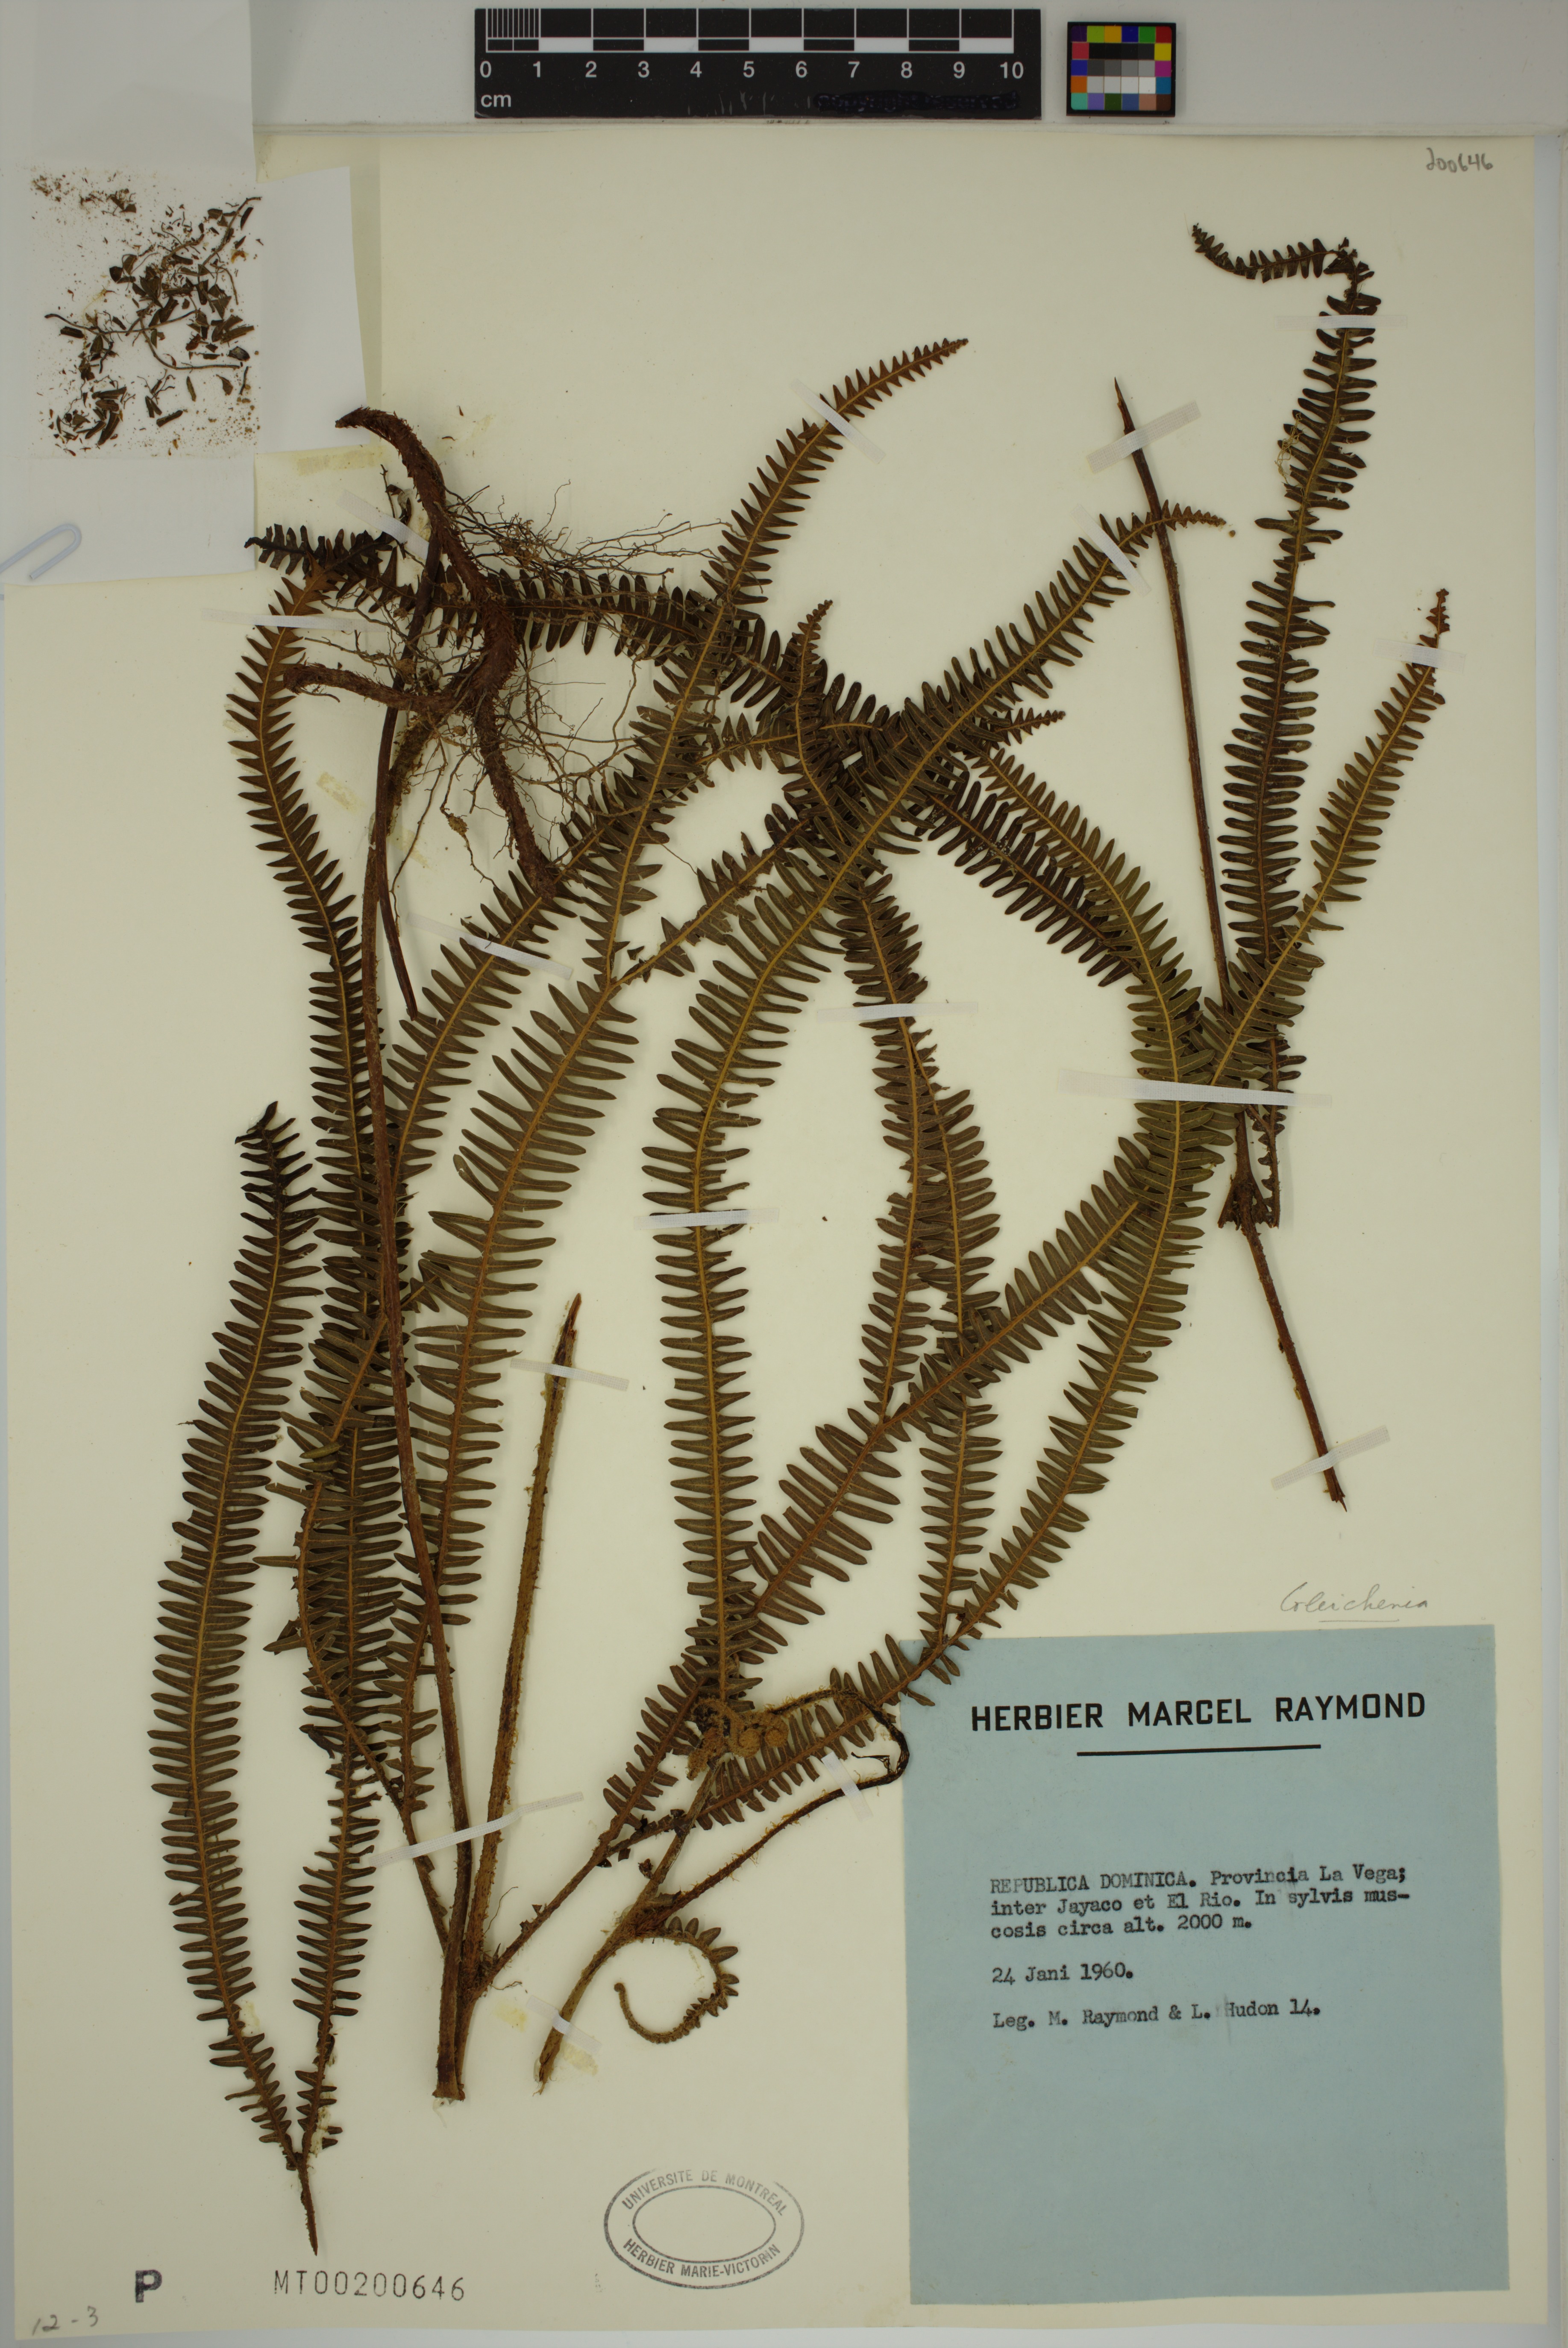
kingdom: Plantae
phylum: Tracheophyta
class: Polypodiopsida
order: Gleicheniales
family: Gleicheniaceae
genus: Gleichenia
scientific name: Gleichenia
